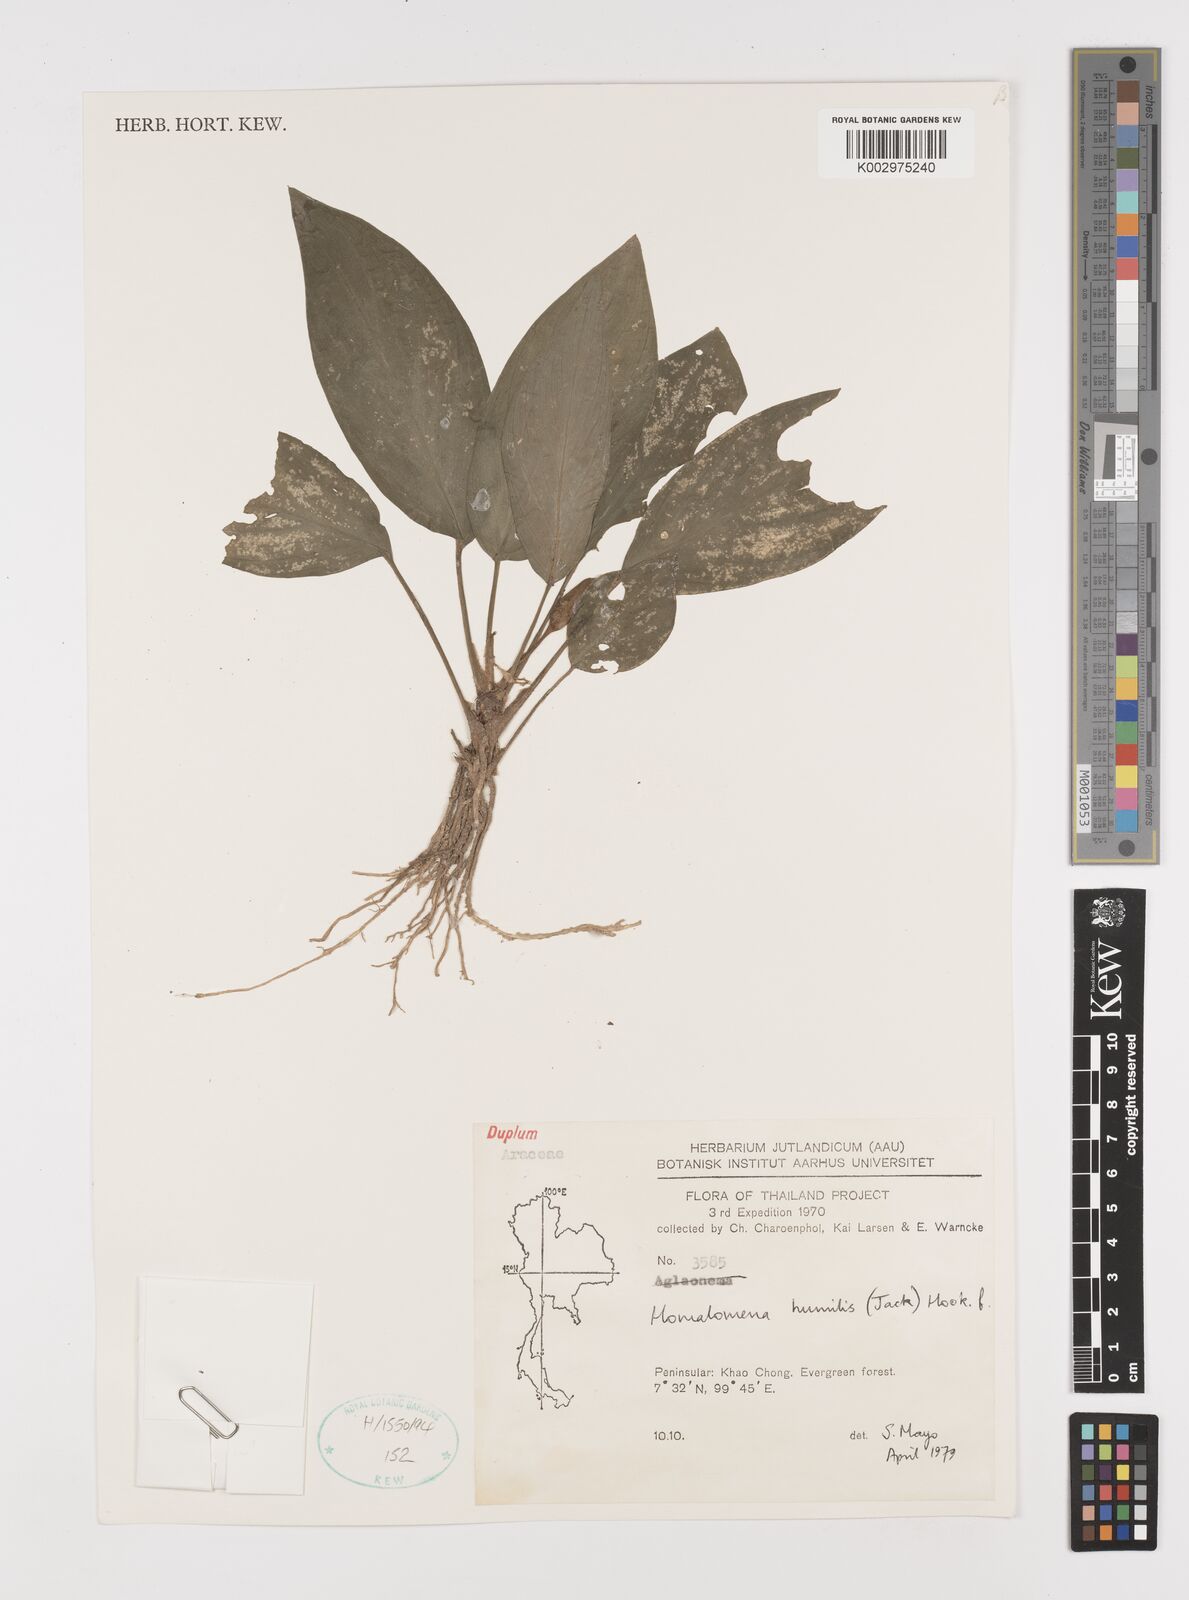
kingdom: Plantae
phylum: Tracheophyta
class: Liliopsida
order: Alismatales
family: Araceae
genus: Homalomena
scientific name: Homalomena humilis
